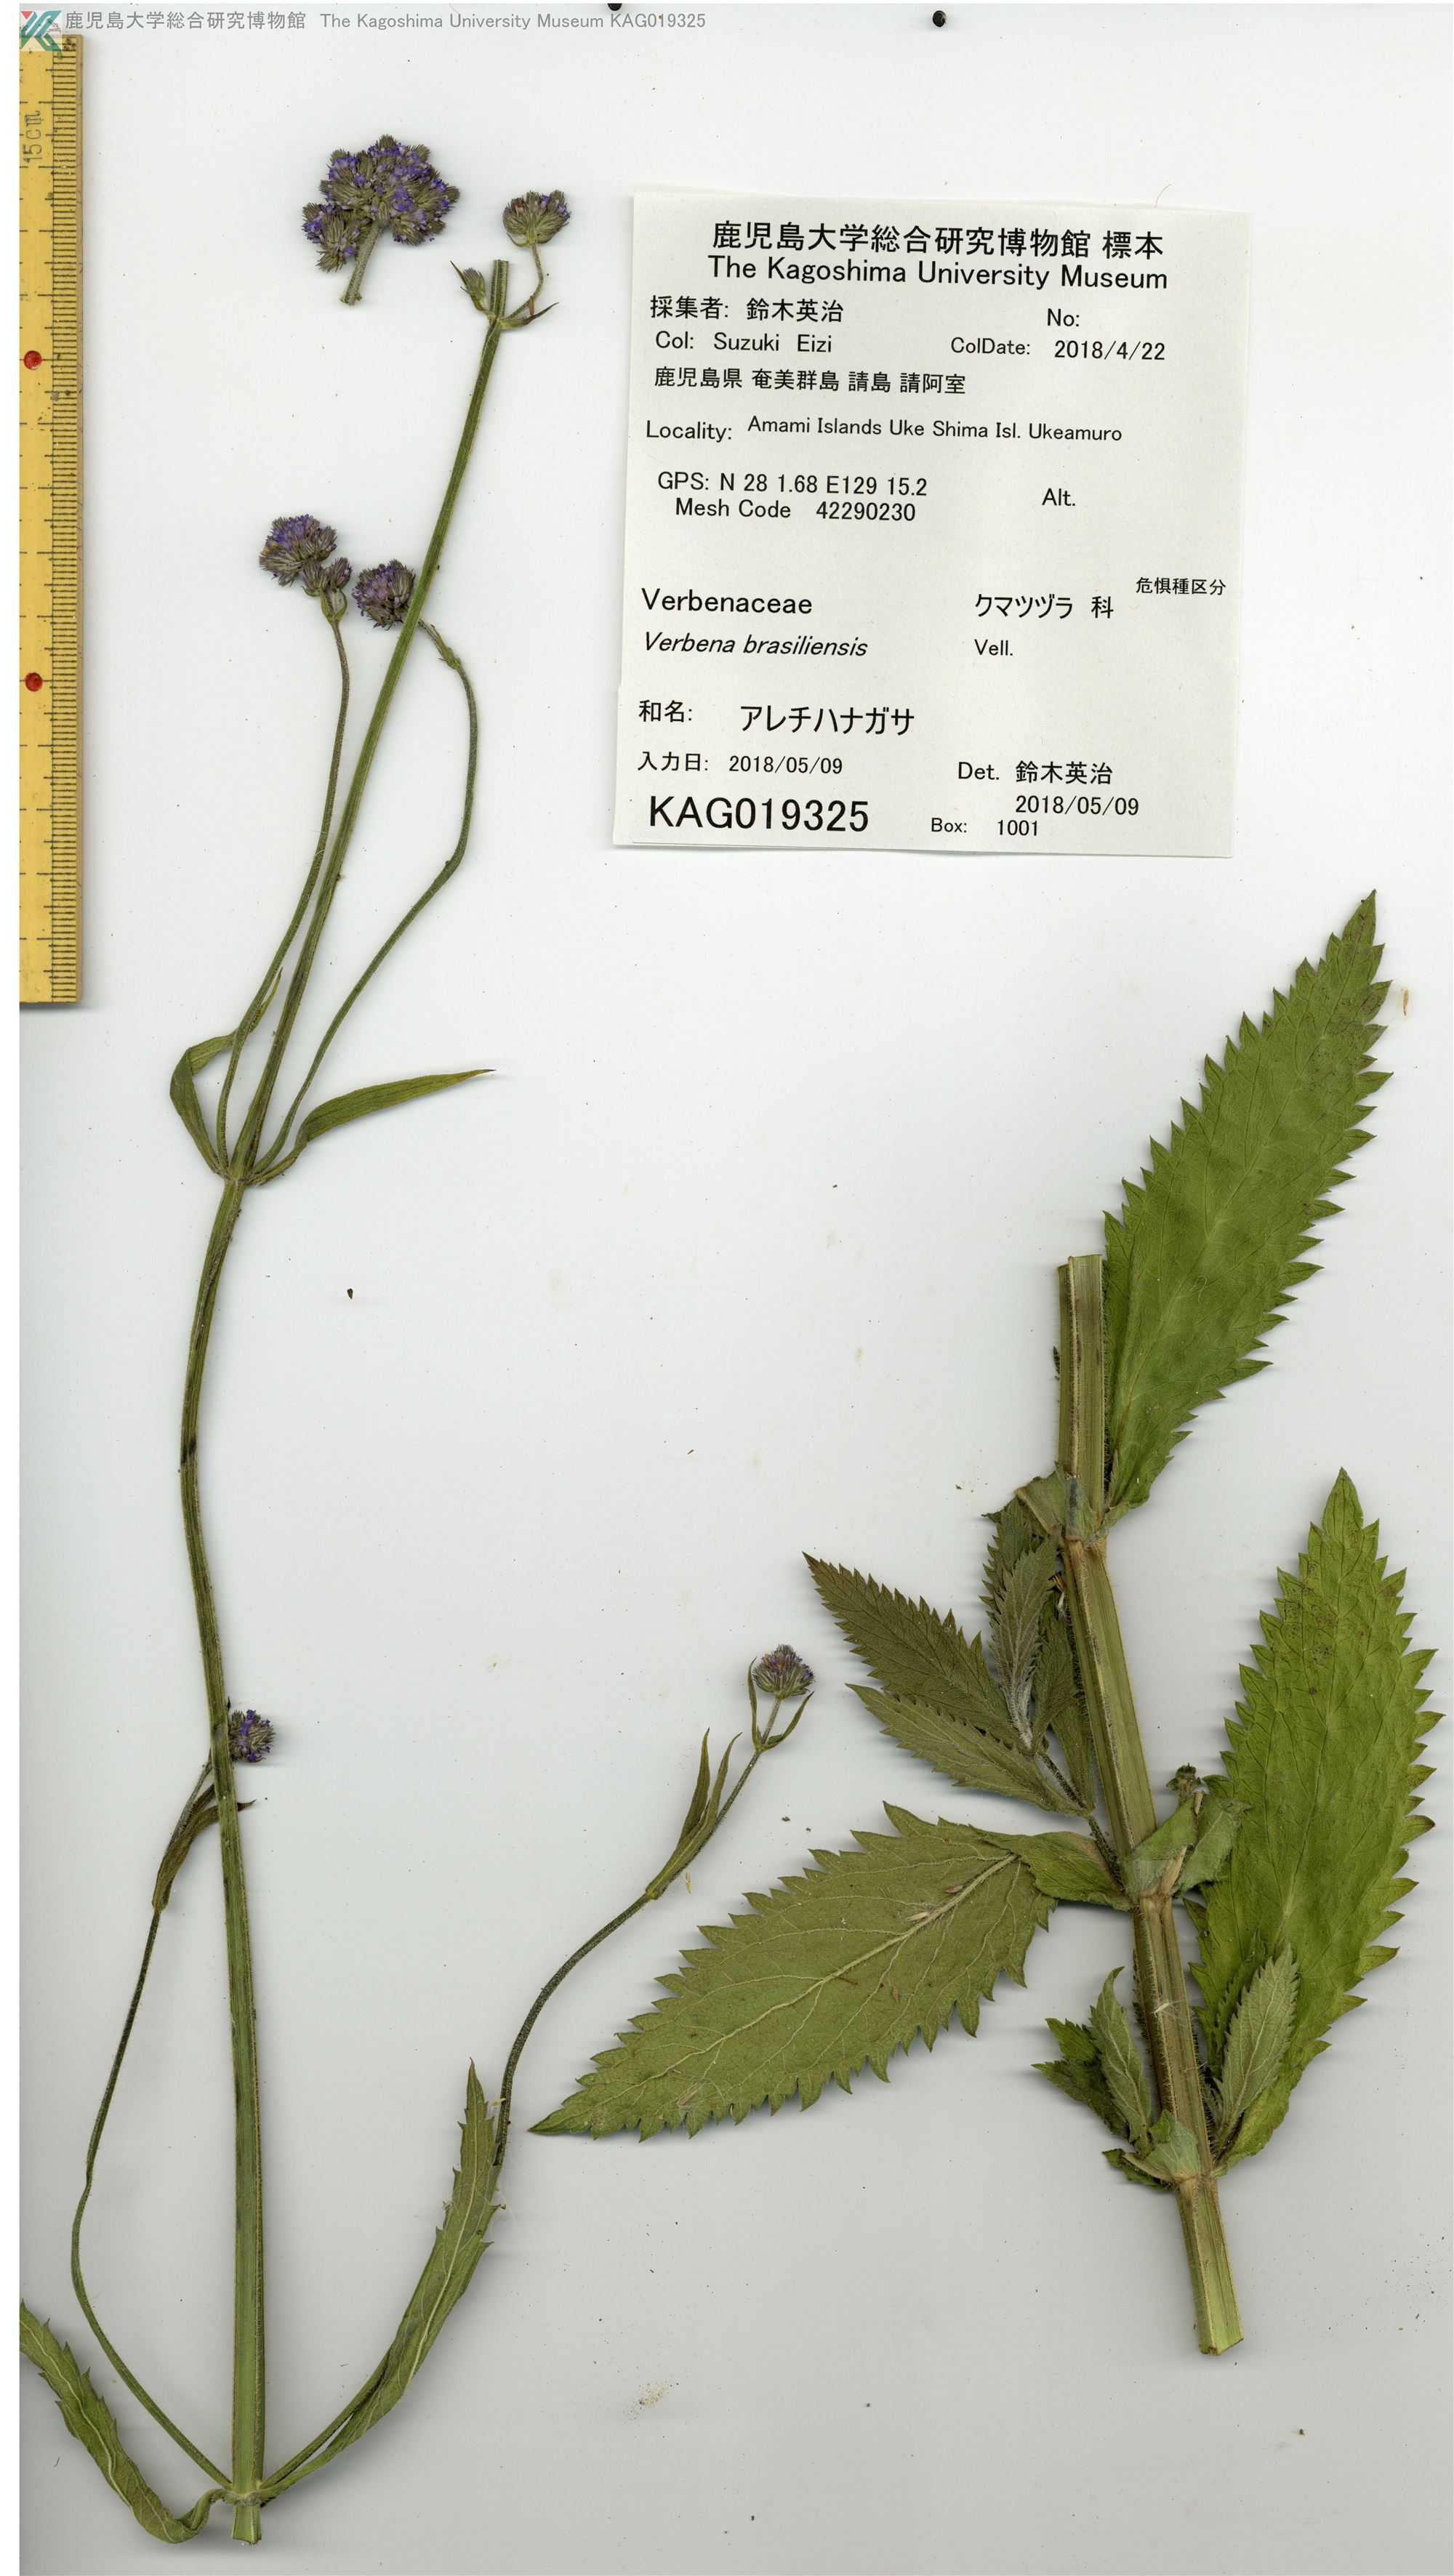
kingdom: Plantae
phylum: Tracheophyta
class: Magnoliopsida
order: Lamiales
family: Verbenaceae
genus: Verbena
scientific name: Verbena incompta
